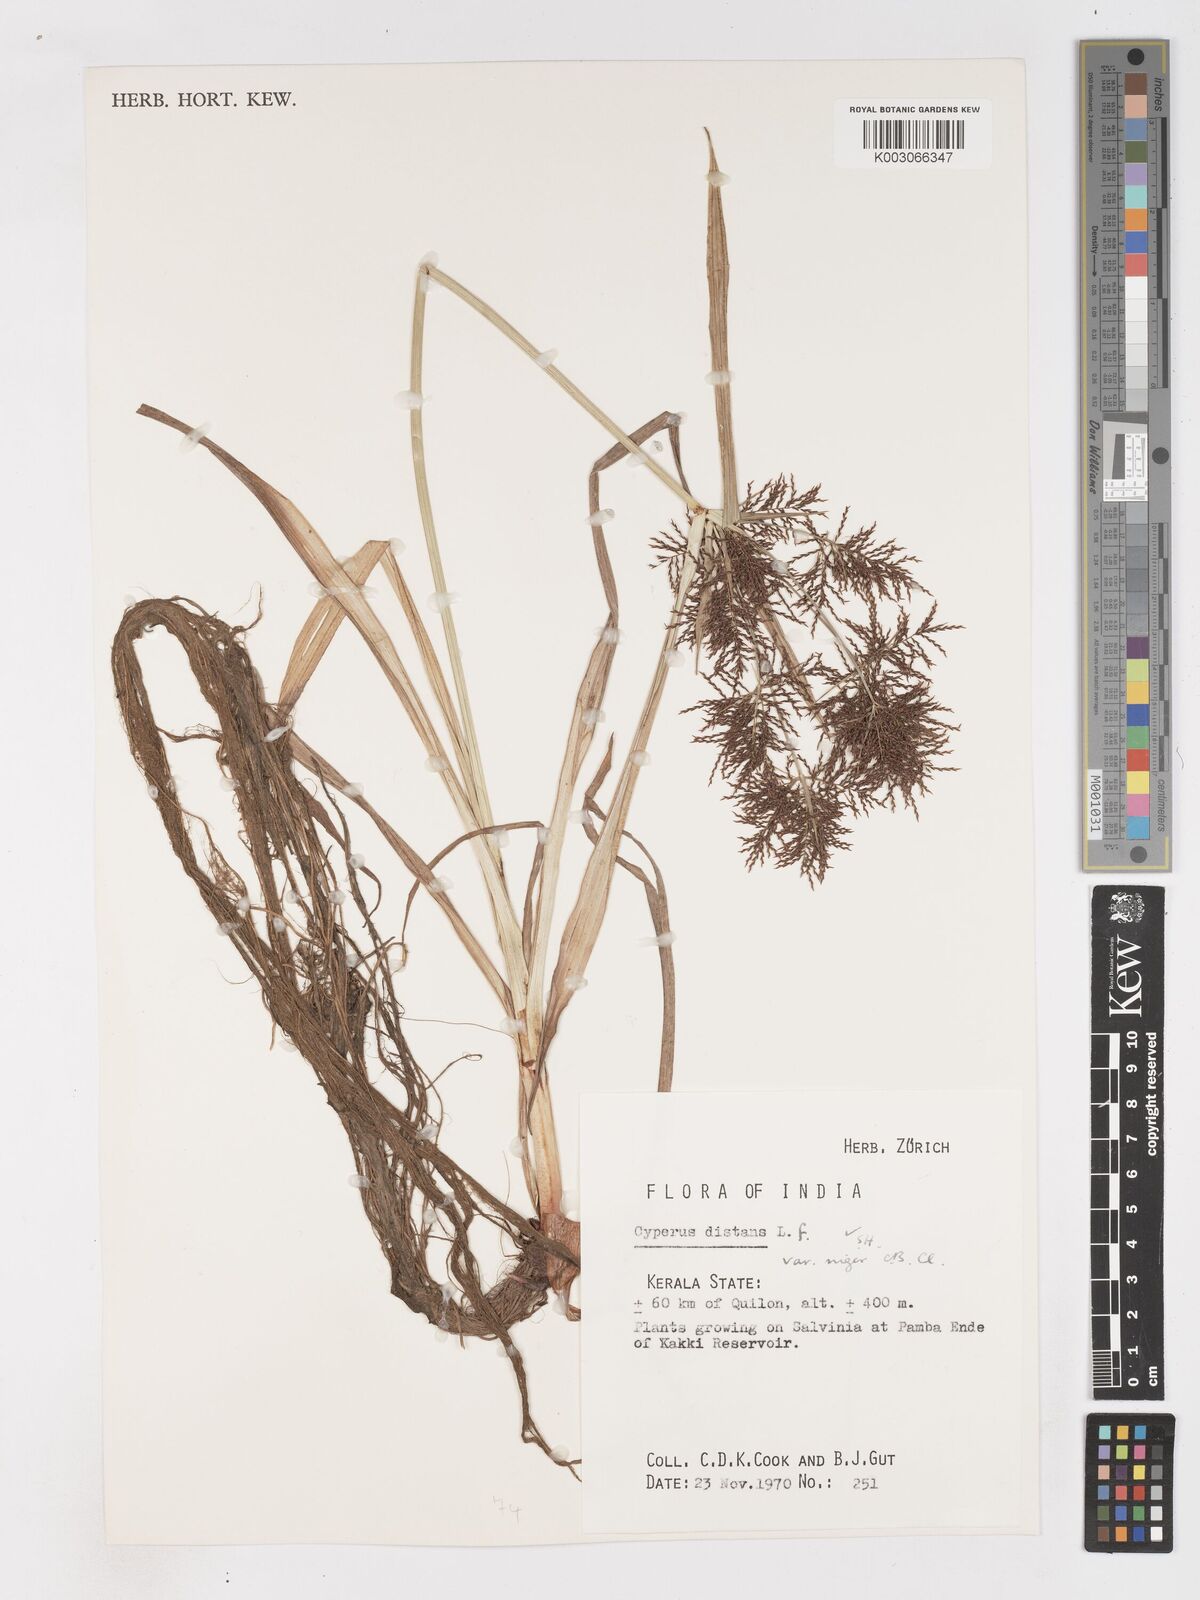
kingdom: Plantae
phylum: Tracheophyta
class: Liliopsida
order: Poales
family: Cyperaceae
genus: Cyperus
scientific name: Cyperus distans
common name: Slender cyperus
